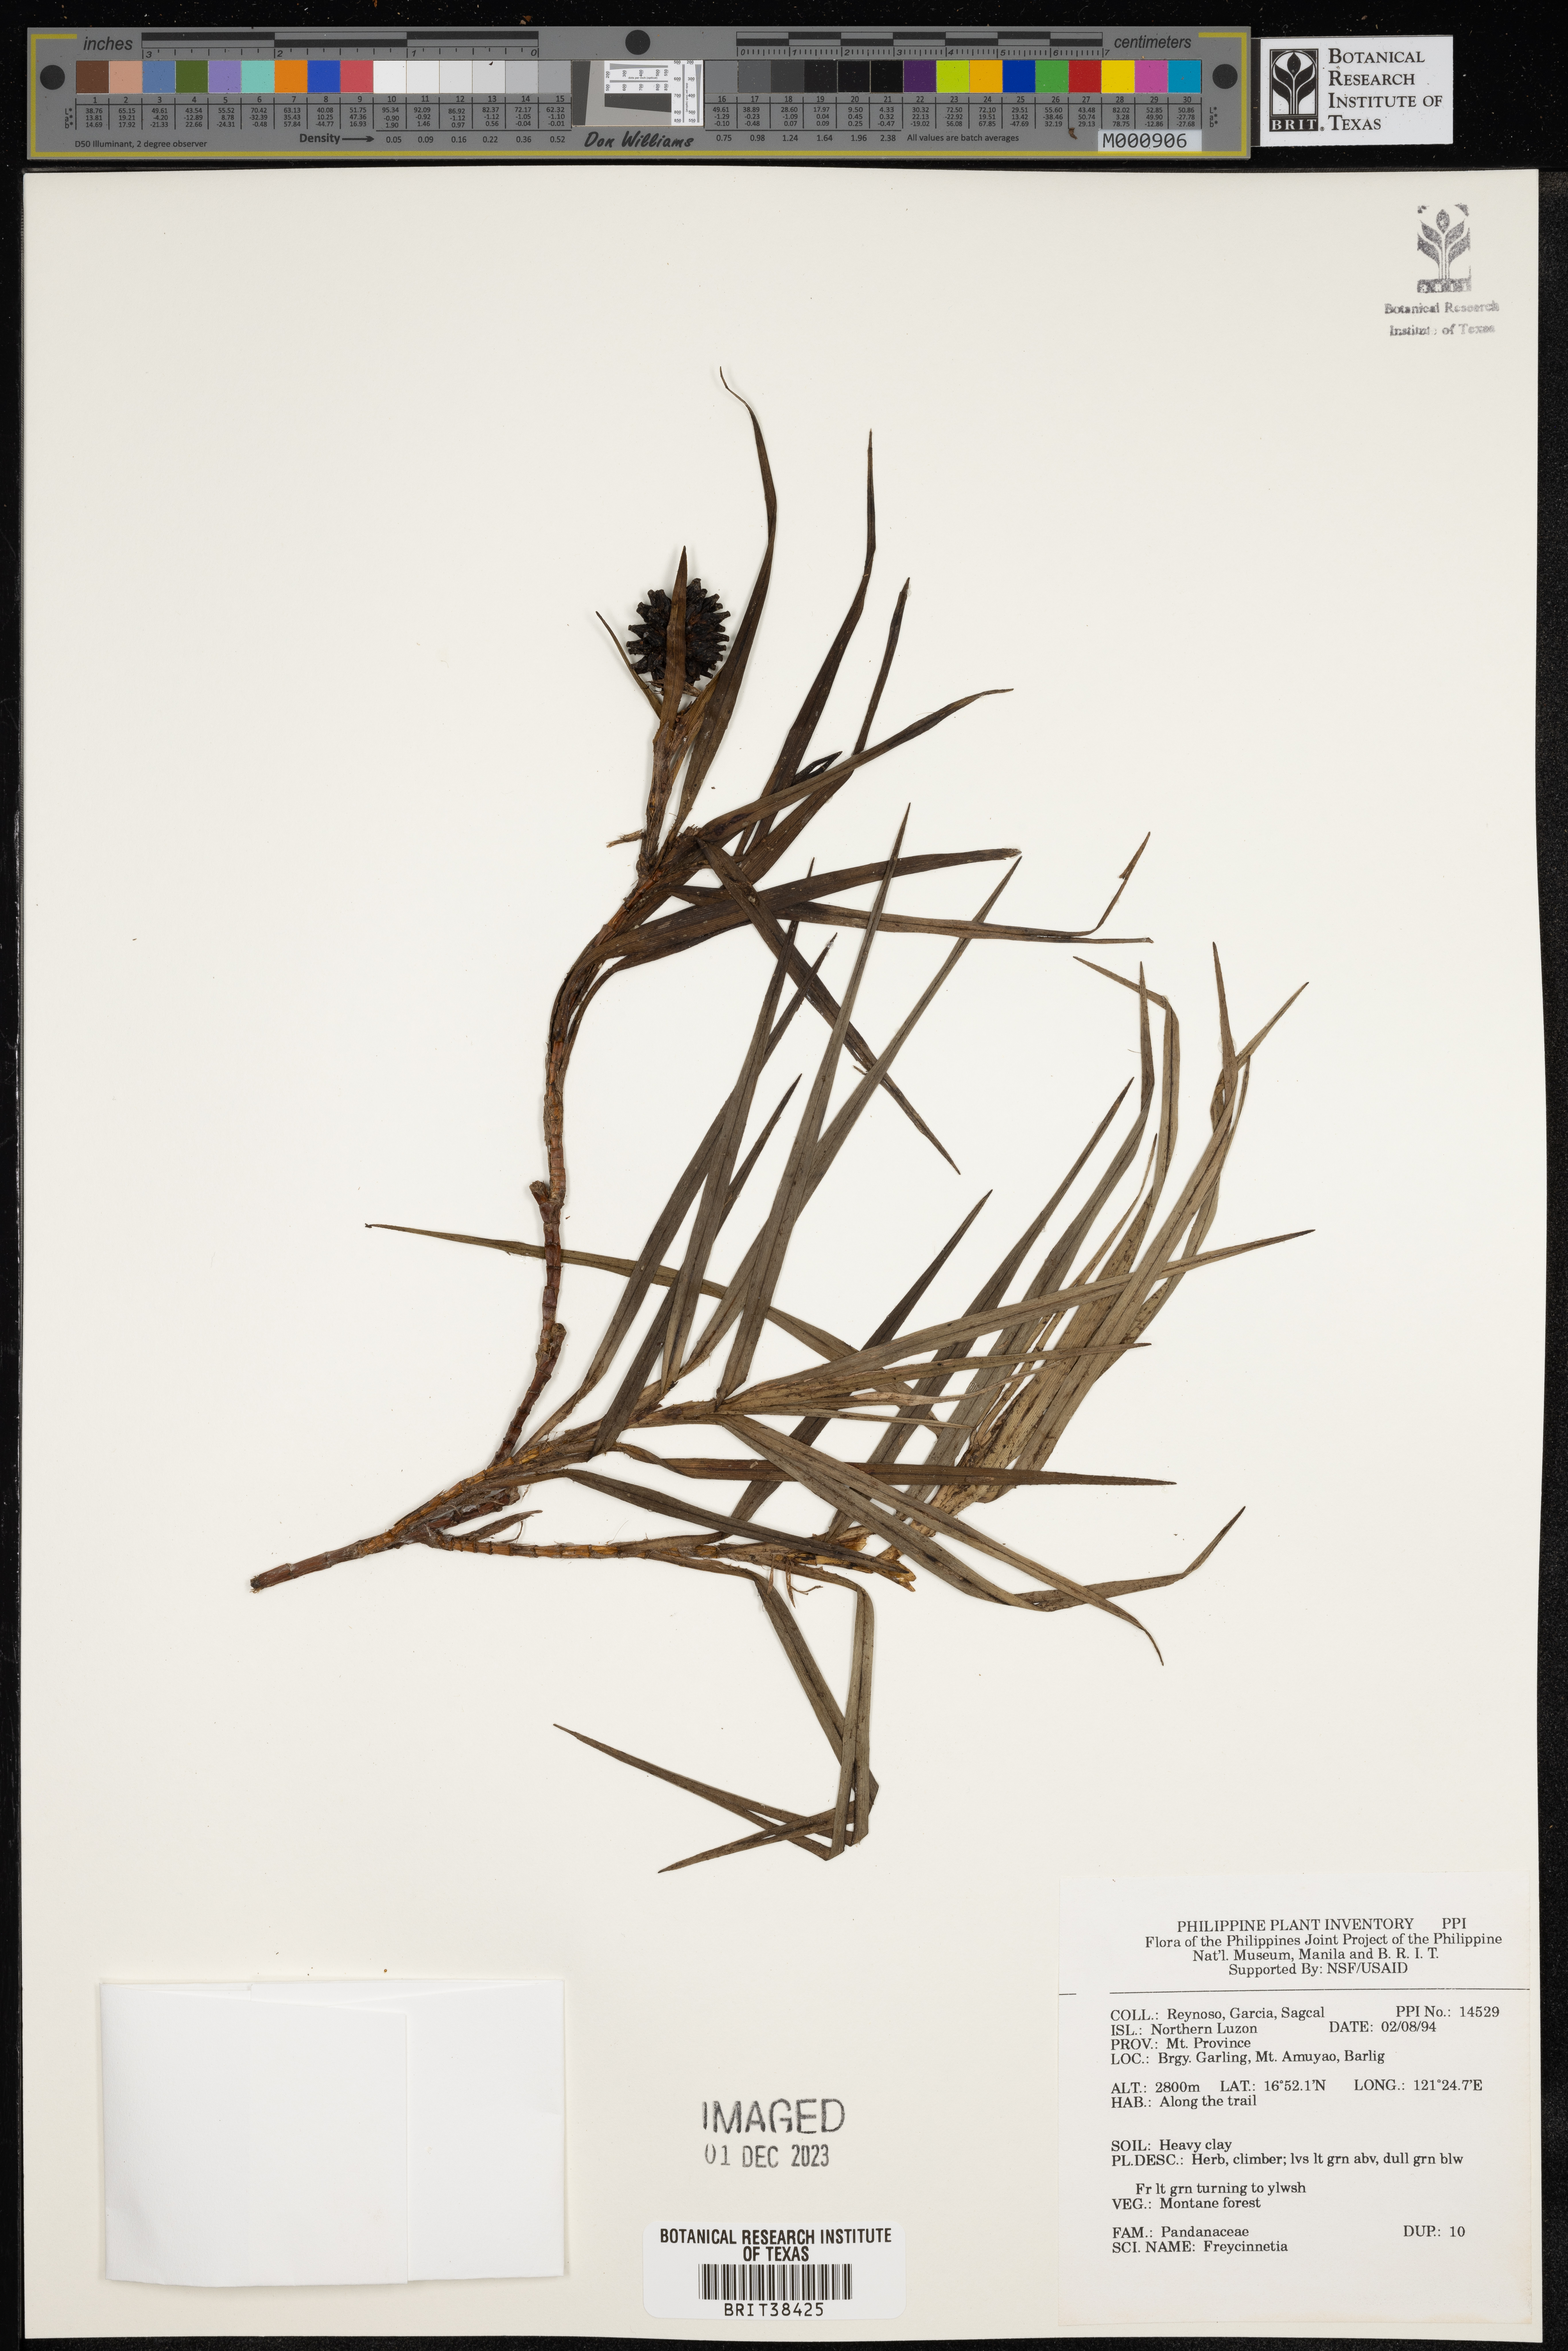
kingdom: Plantae
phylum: Tracheophyta
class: Liliopsida
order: Pandanales
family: Pandanaceae
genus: Freycinetia
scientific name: Freycinetia
